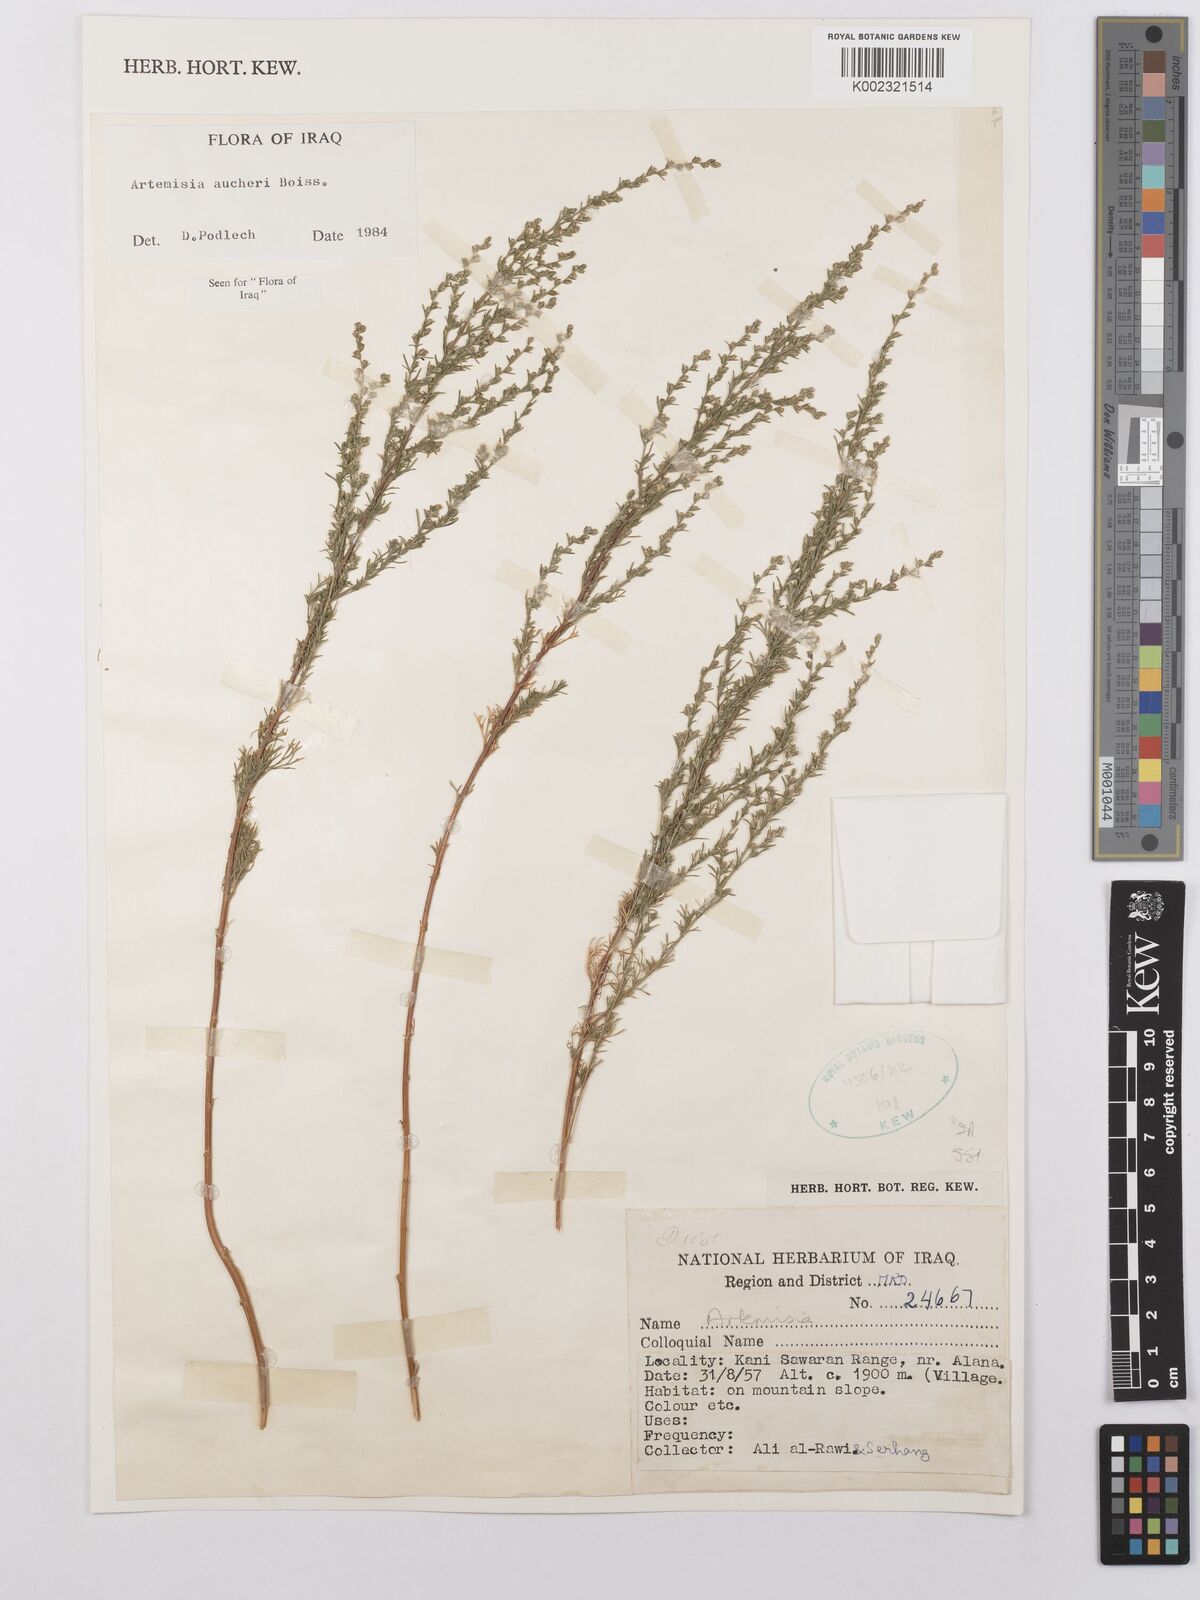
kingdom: Plantae
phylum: Tracheophyta
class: Magnoliopsida
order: Asterales
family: Asteraceae
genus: Artemisia
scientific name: Artemisia aucheri
